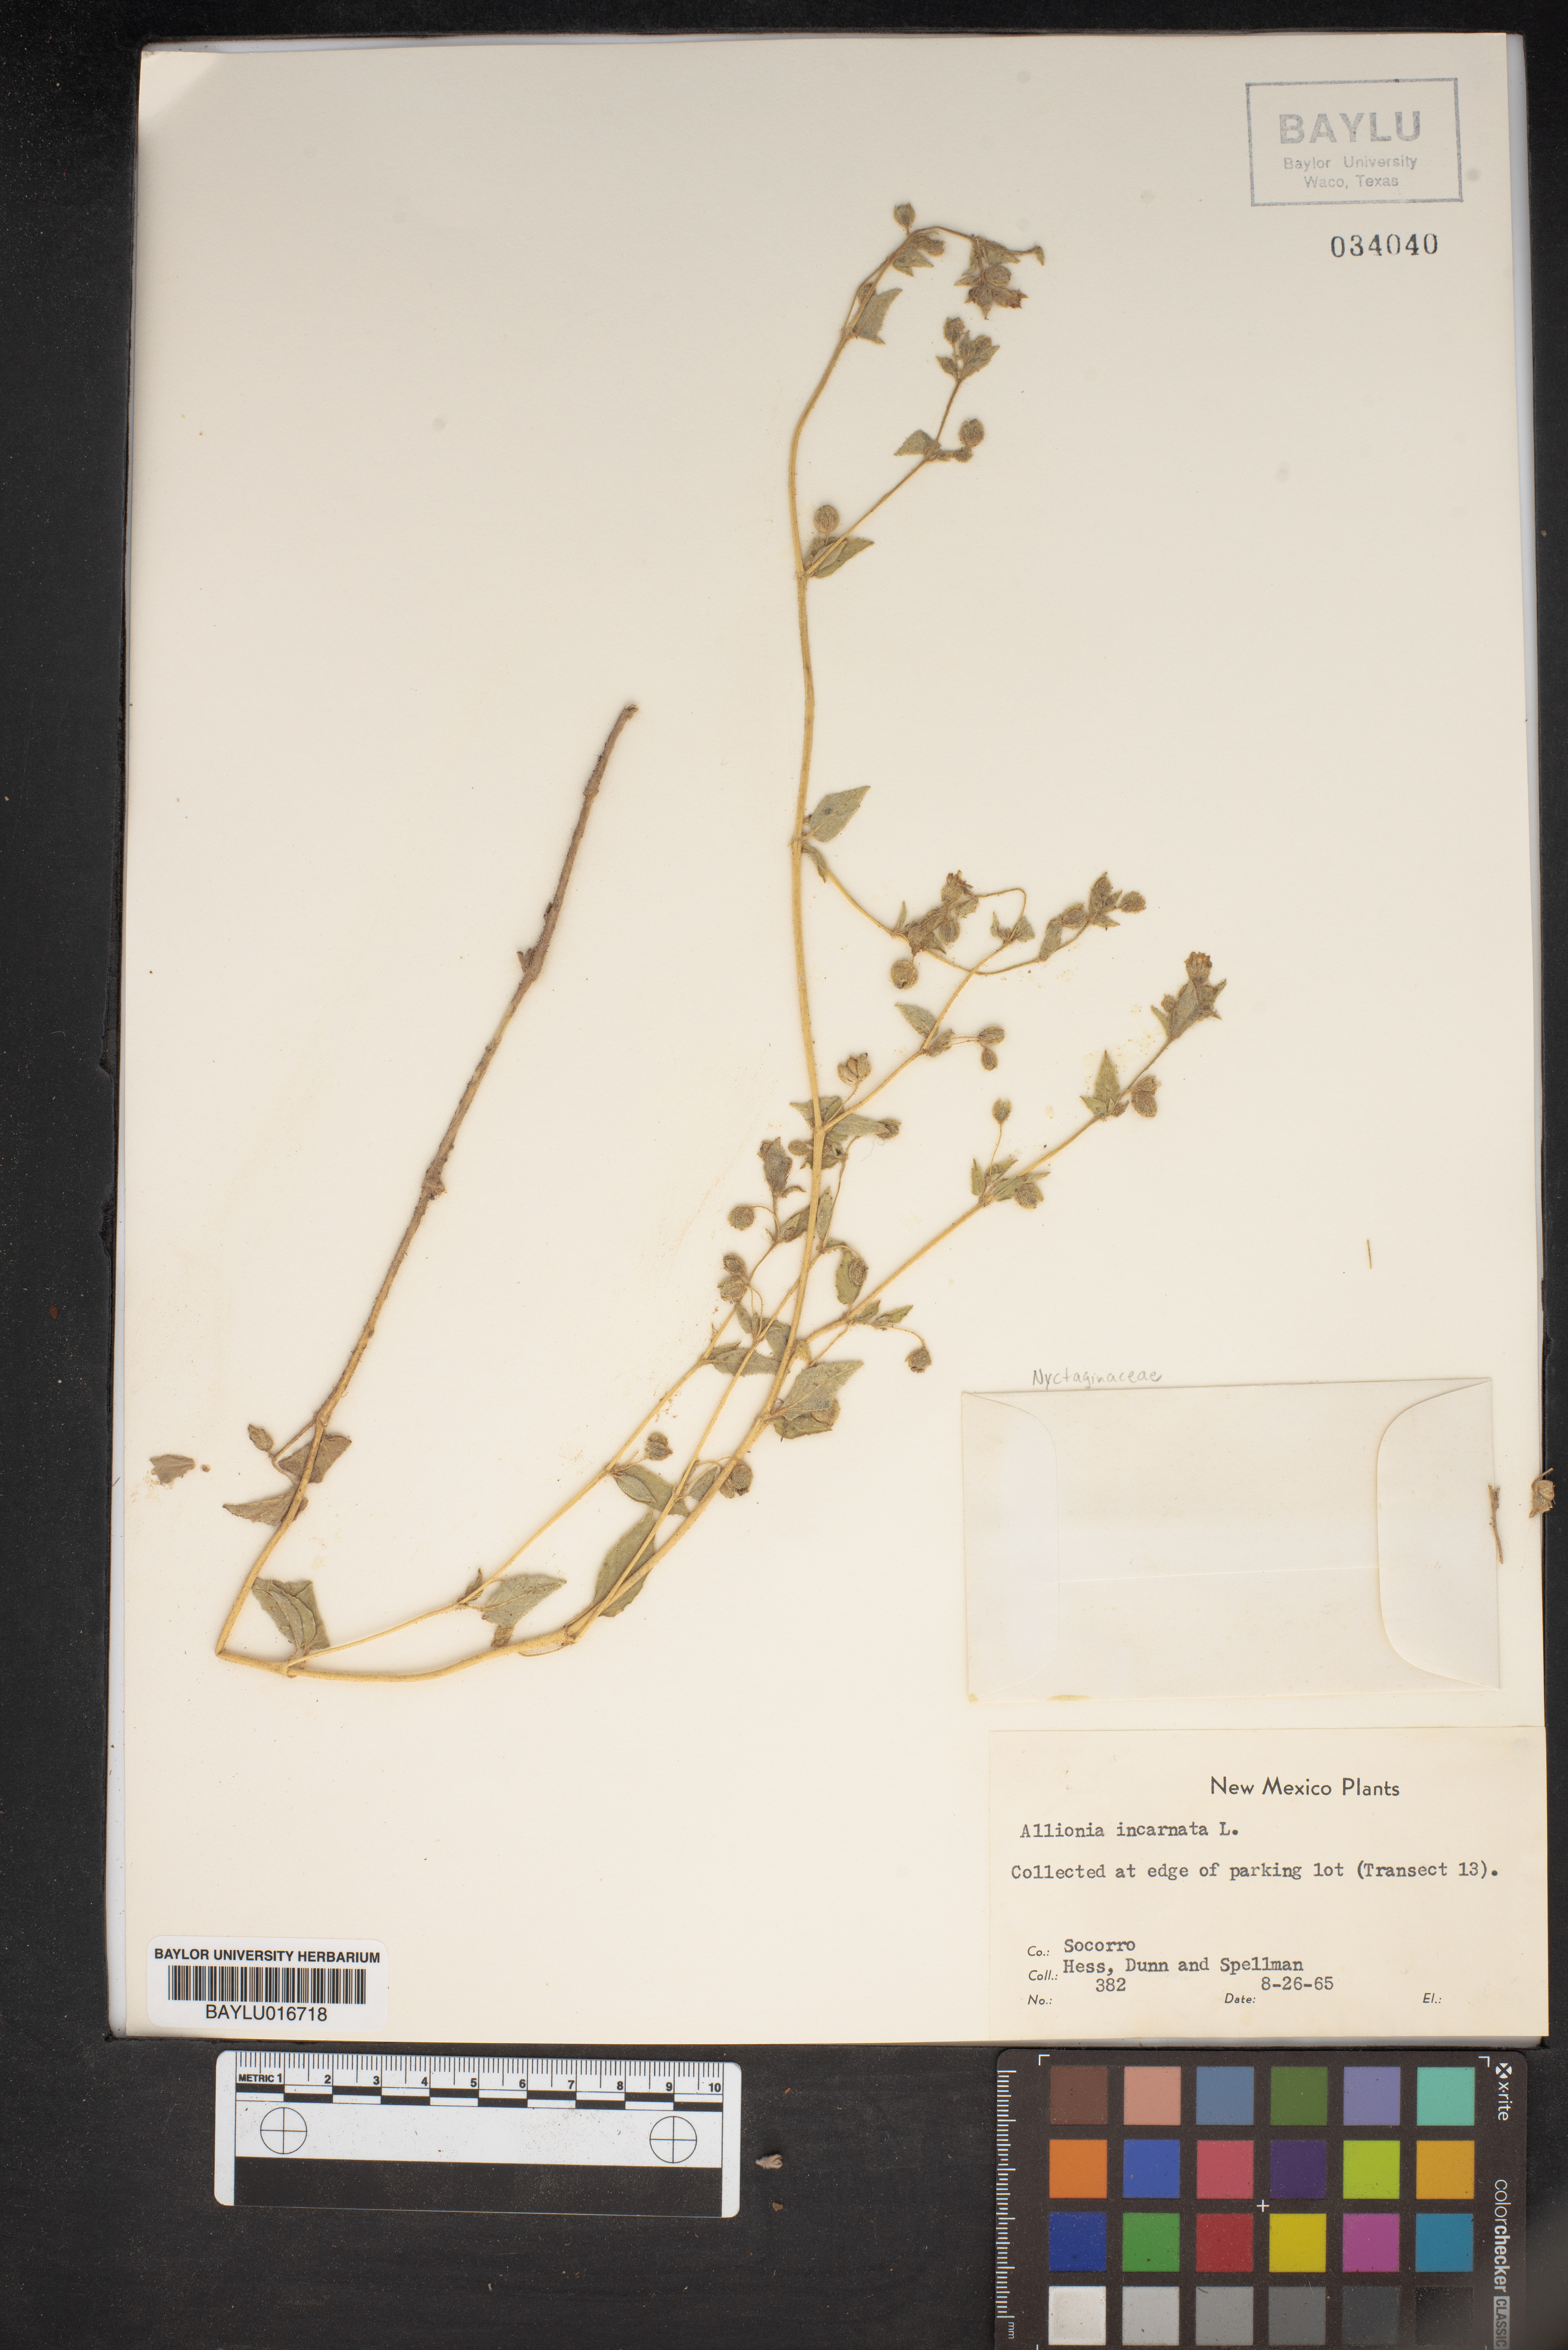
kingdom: Plantae
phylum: Tracheophyta
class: Magnoliopsida
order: Caryophyllales
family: Nyctaginaceae
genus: Allionia
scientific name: Allionia incarnata
